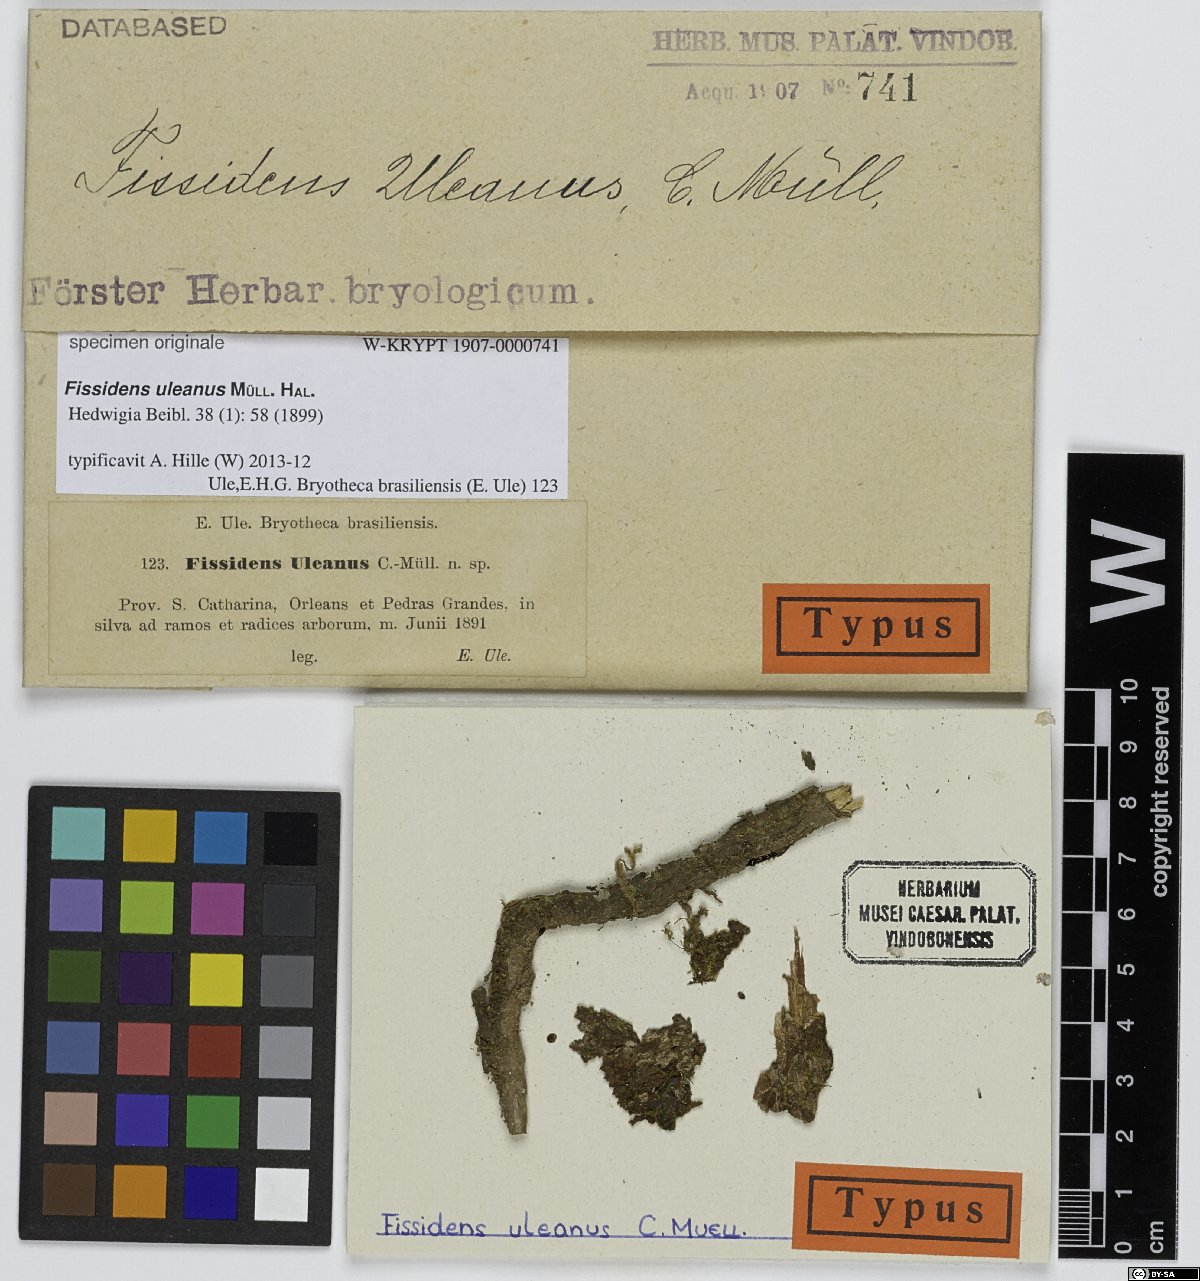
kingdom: Plantae
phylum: Bryophyta
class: Bryopsida
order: Dicranales
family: Fissidentaceae
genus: Fissidens
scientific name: Fissidens weirii
